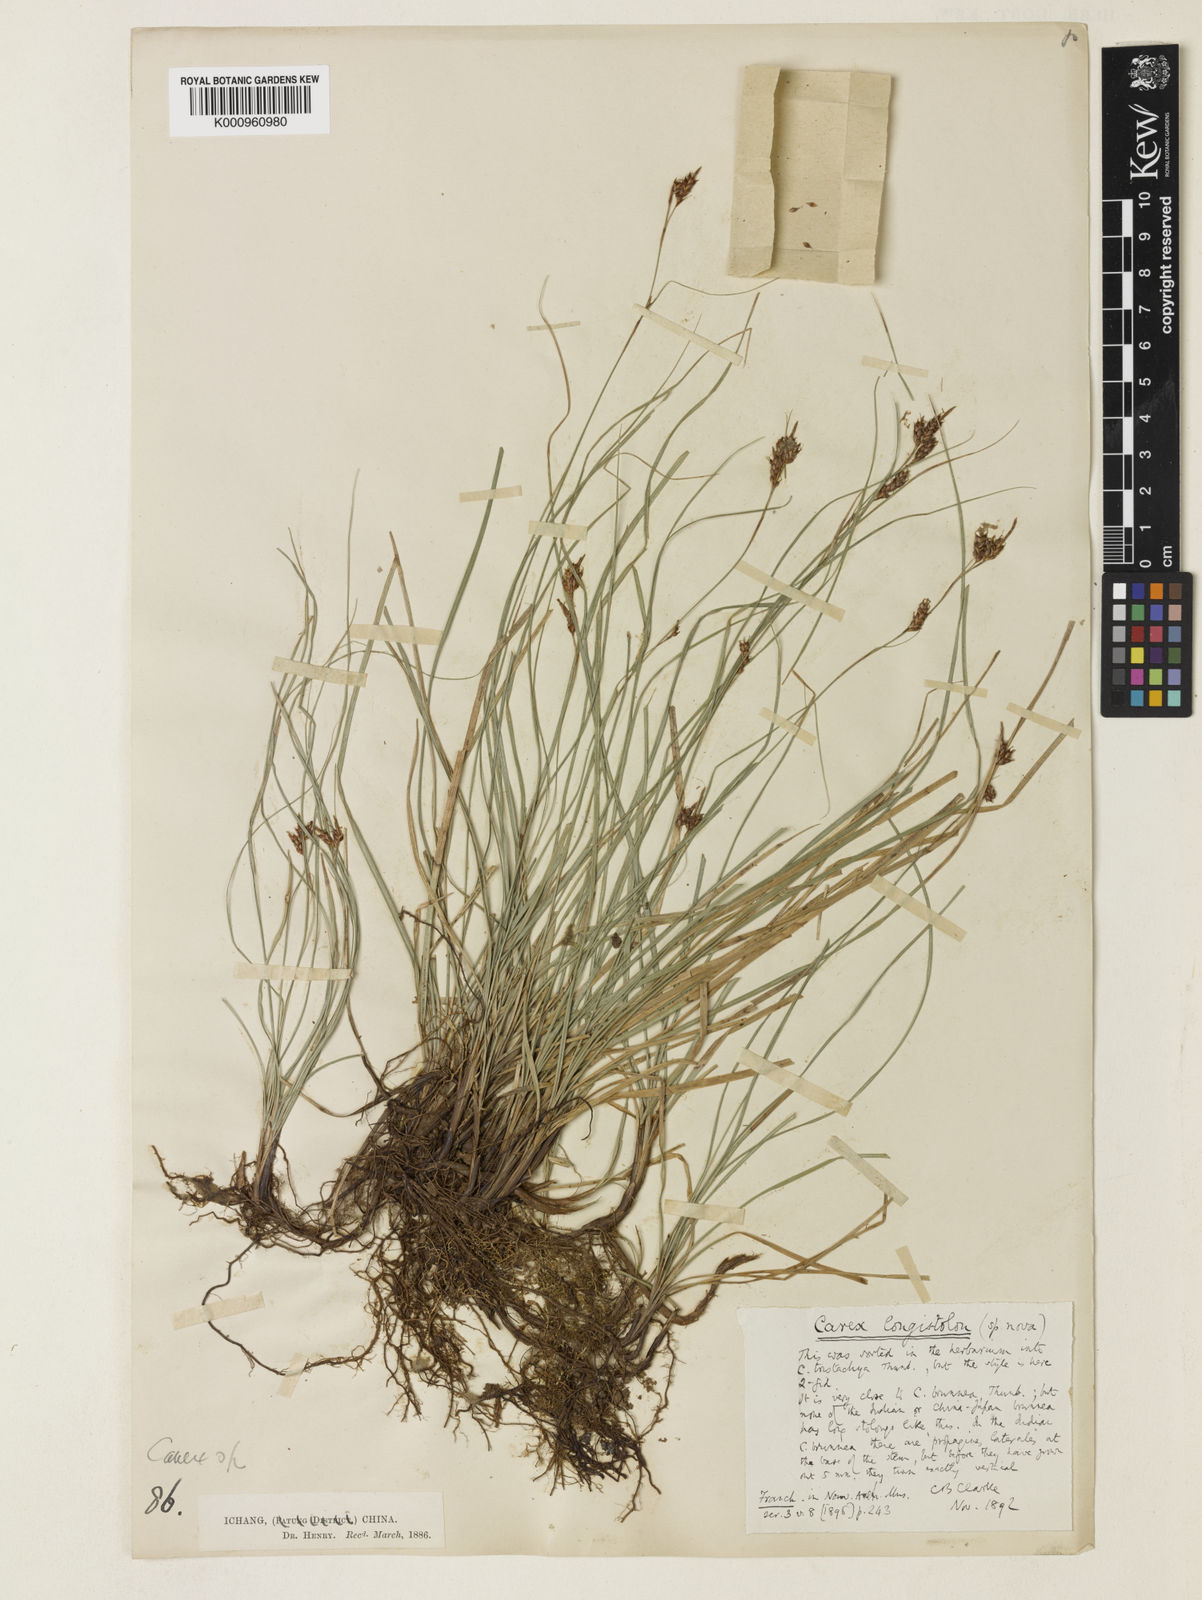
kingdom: Plantae
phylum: Tracheophyta
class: Liliopsida
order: Poales
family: Cyperaceae
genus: Carex
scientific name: Carex brunnea
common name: Greater brown sedge
